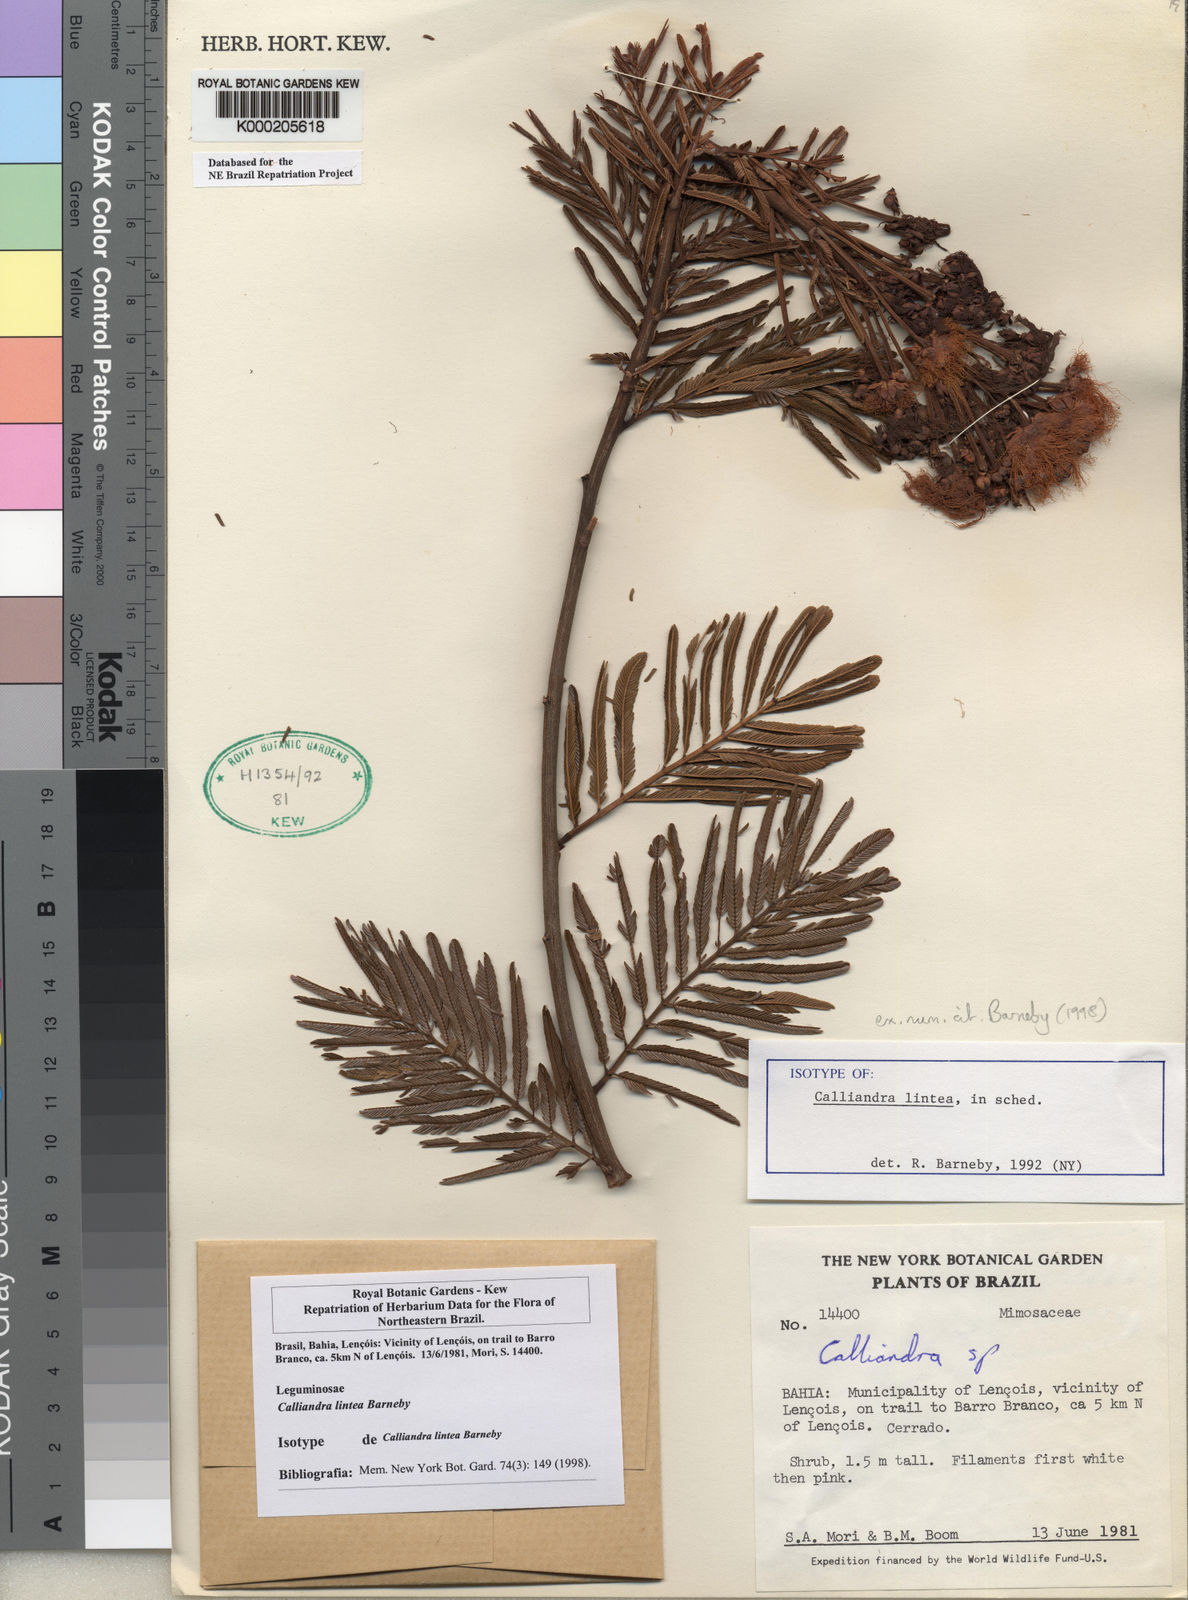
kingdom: Plantae
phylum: Tracheophyta
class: Magnoliopsida
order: Fabales
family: Fabaceae
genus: Calliandra
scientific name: Calliandra lintea
